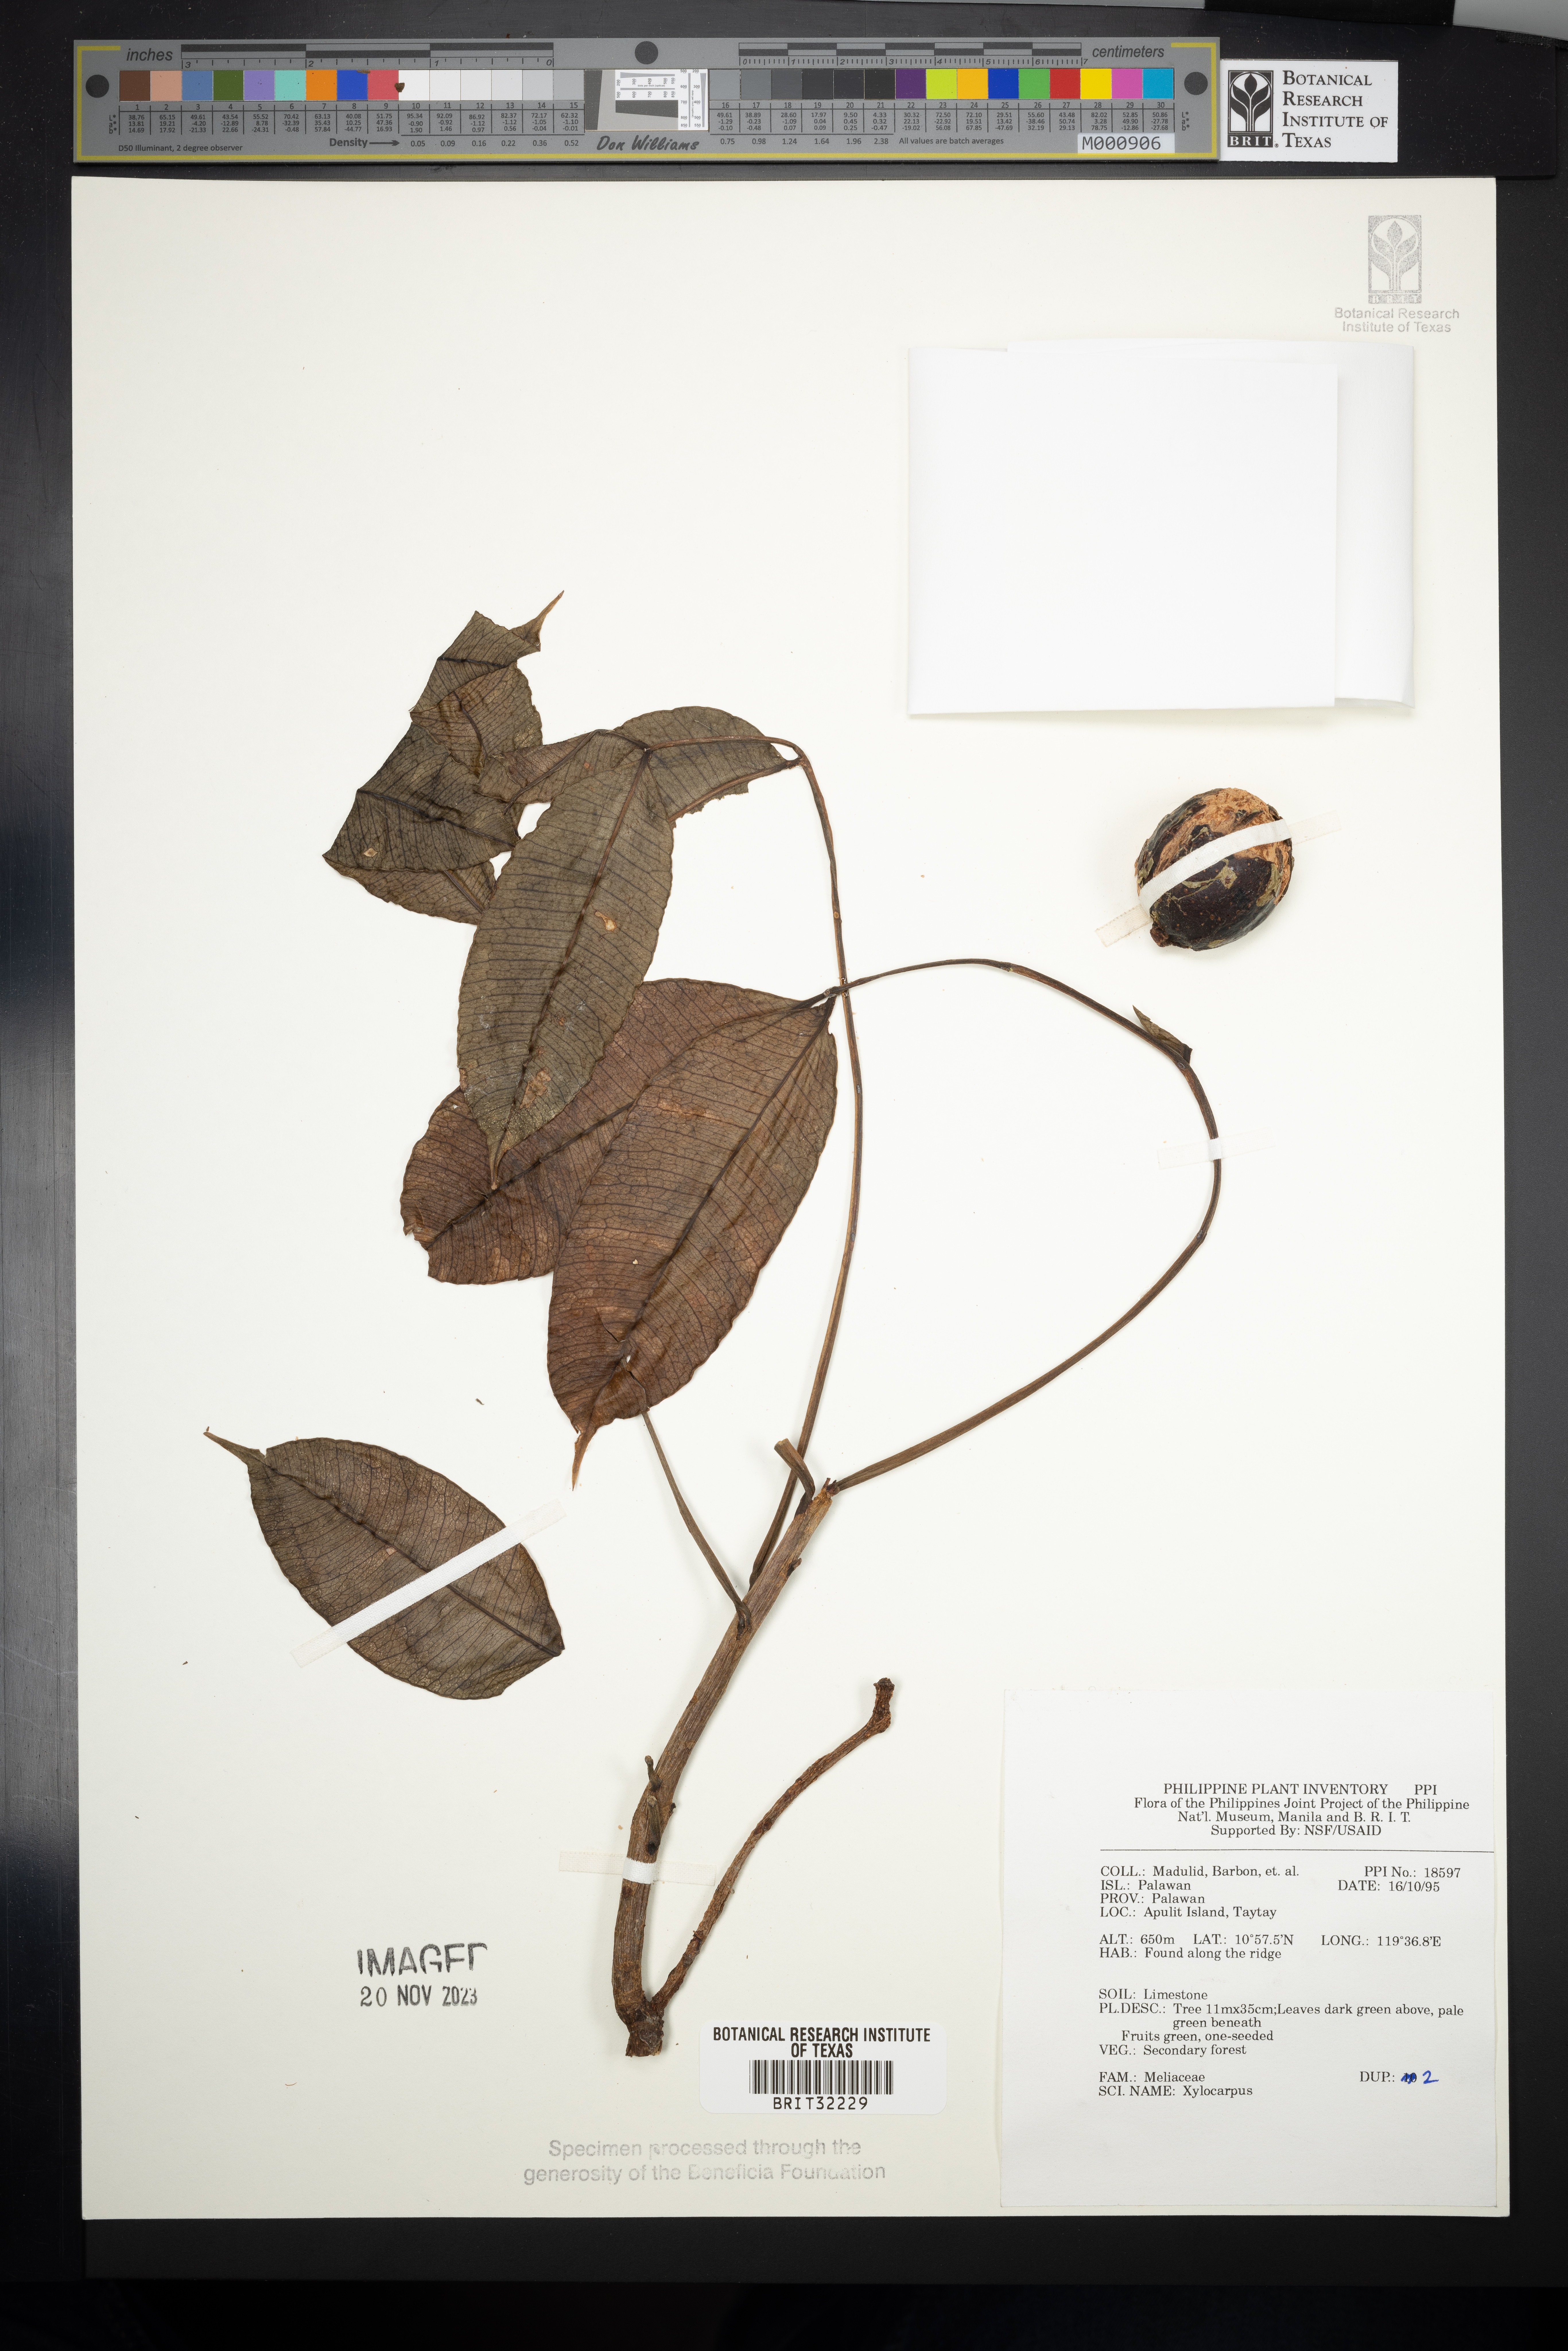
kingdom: Plantae
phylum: Tracheophyta
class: Magnoliopsida
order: Sapindales
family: Meliaceae
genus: Xylocarpus
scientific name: Xylocarpus
